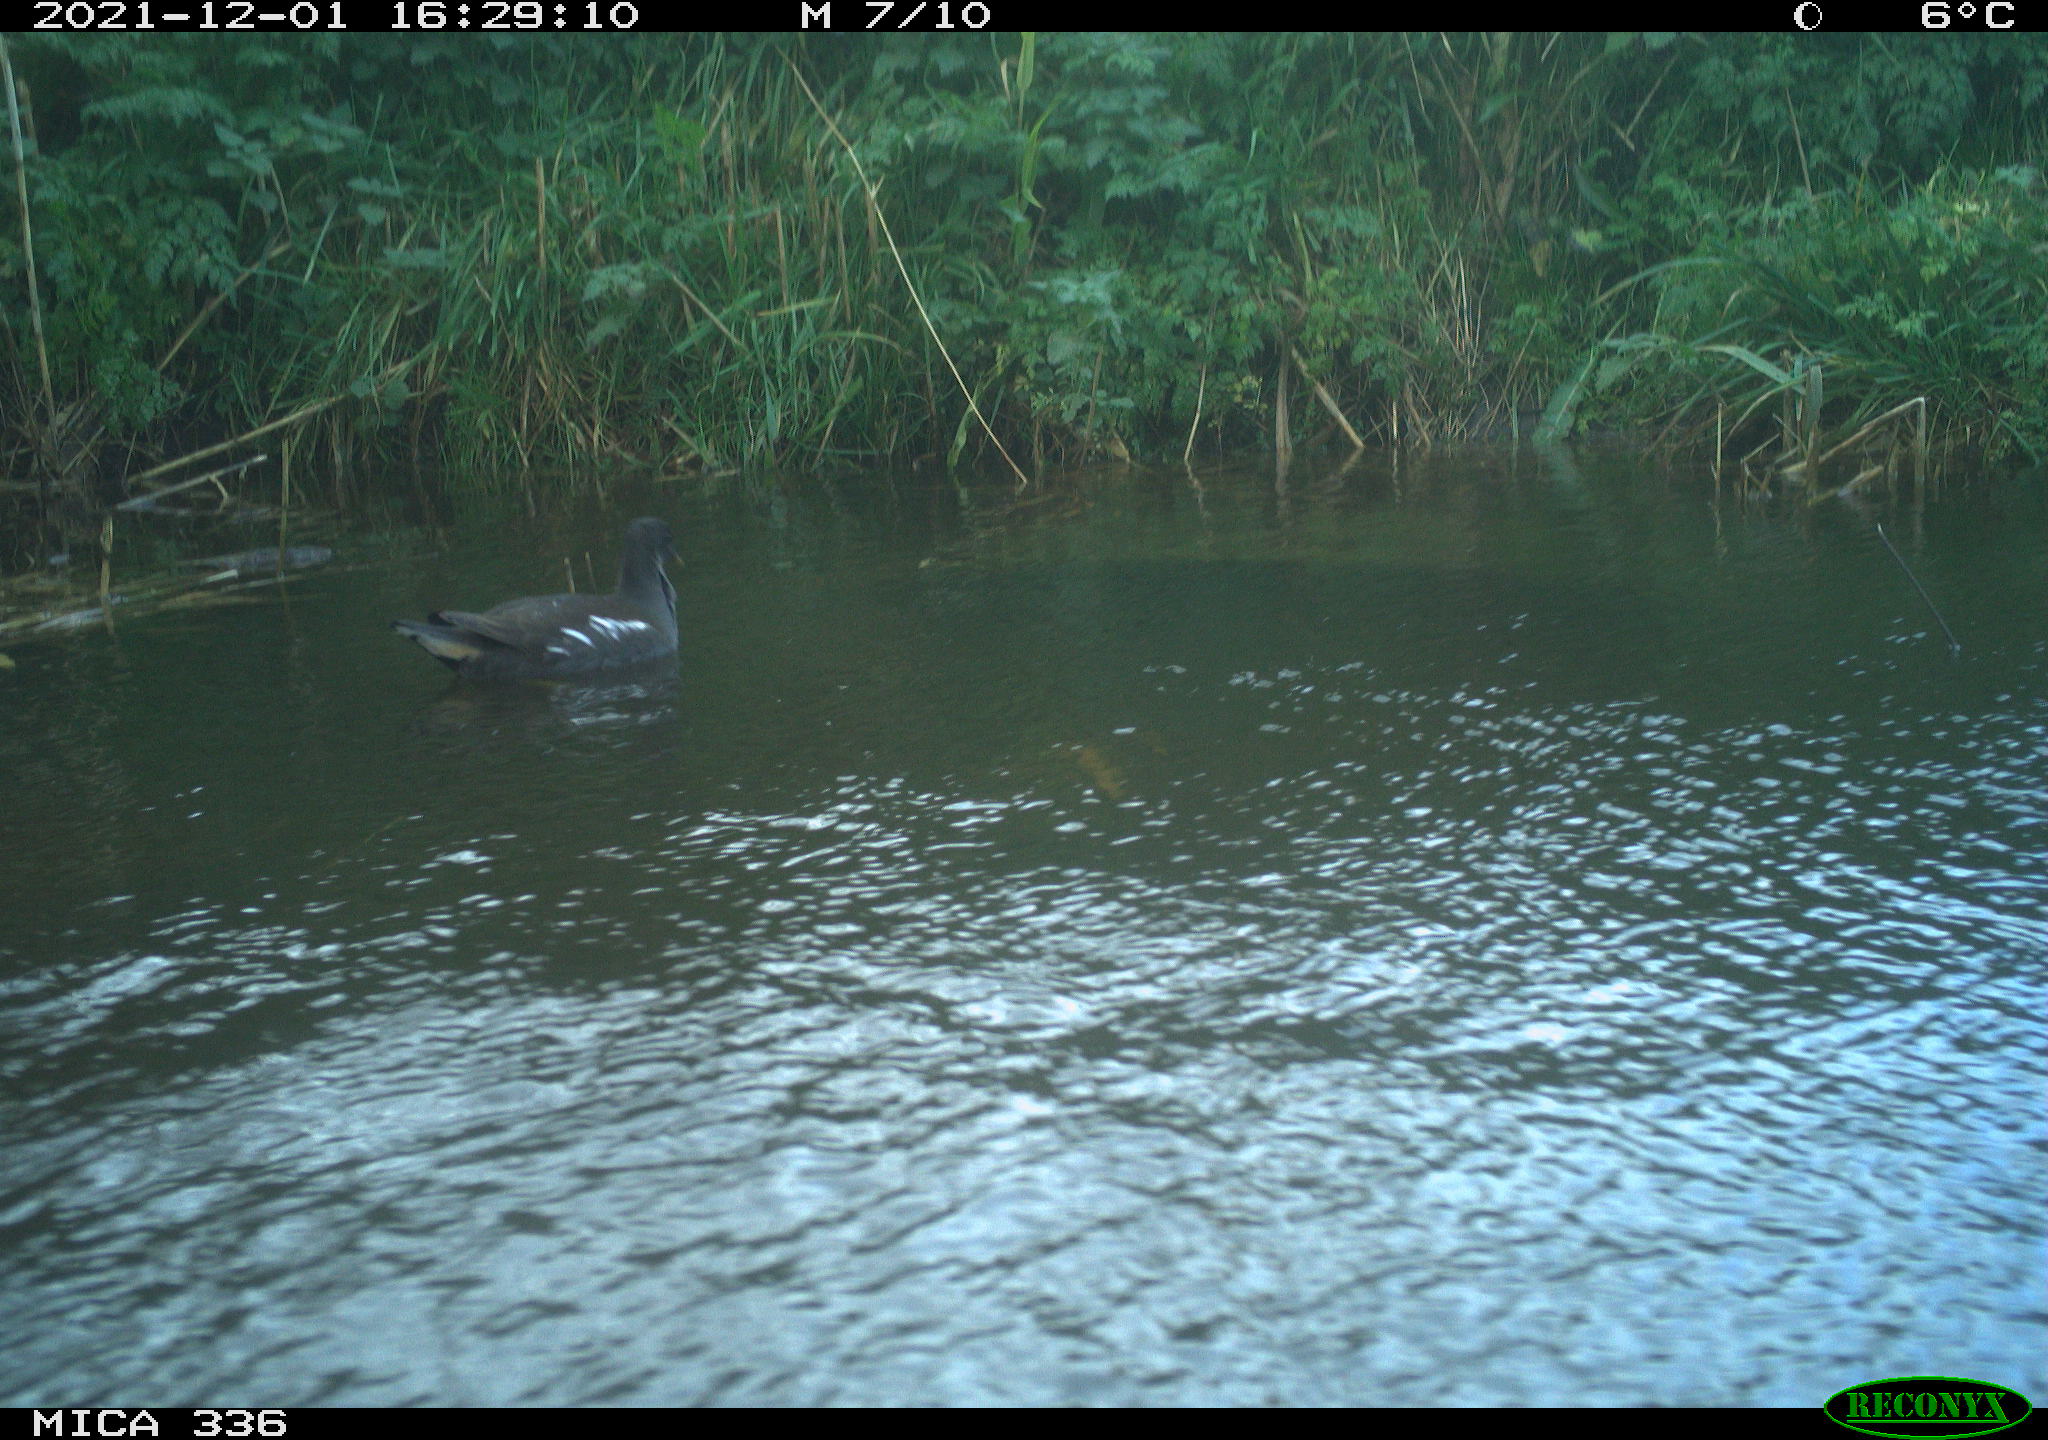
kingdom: Animalia
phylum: Chordata
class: Aves
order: Gruiformes
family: Rallidae
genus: Gallinula
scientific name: Gallinula chloropus
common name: Common moorhen
